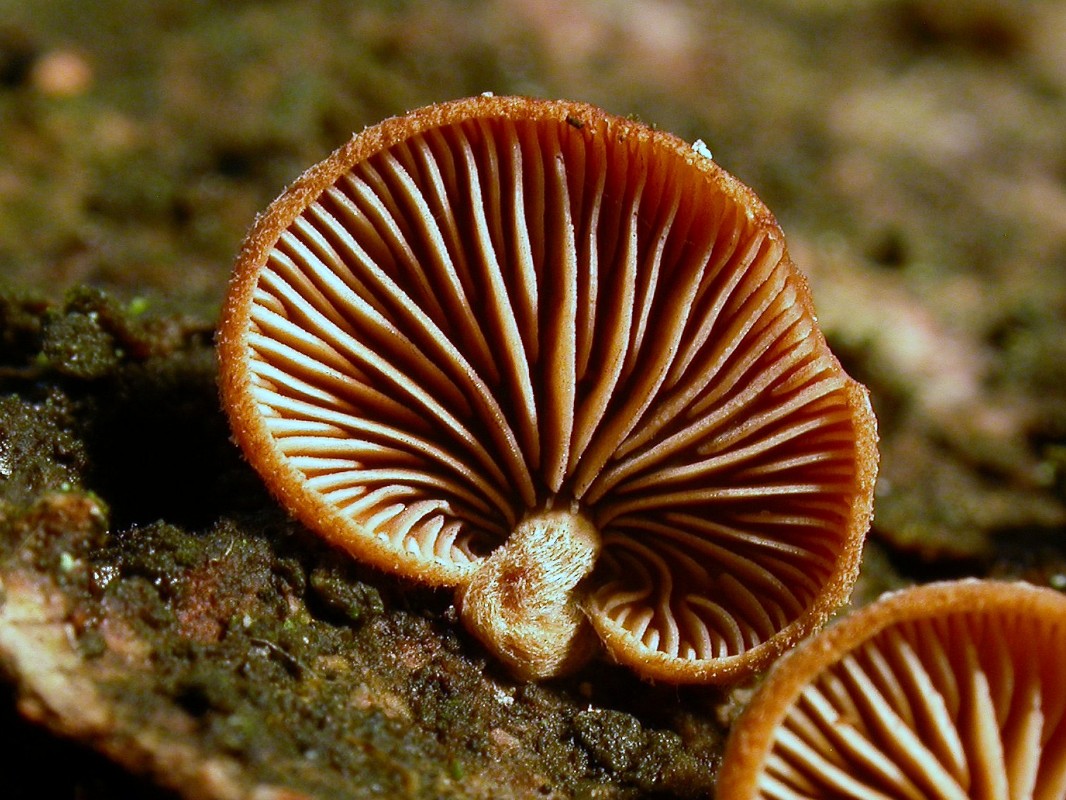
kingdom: Fungi
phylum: Basidiomycota
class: Agaricomycetes
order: Agaricales
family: Strophariaceae
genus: Deconica
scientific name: Deconica horizontalis
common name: ved-stråhat
